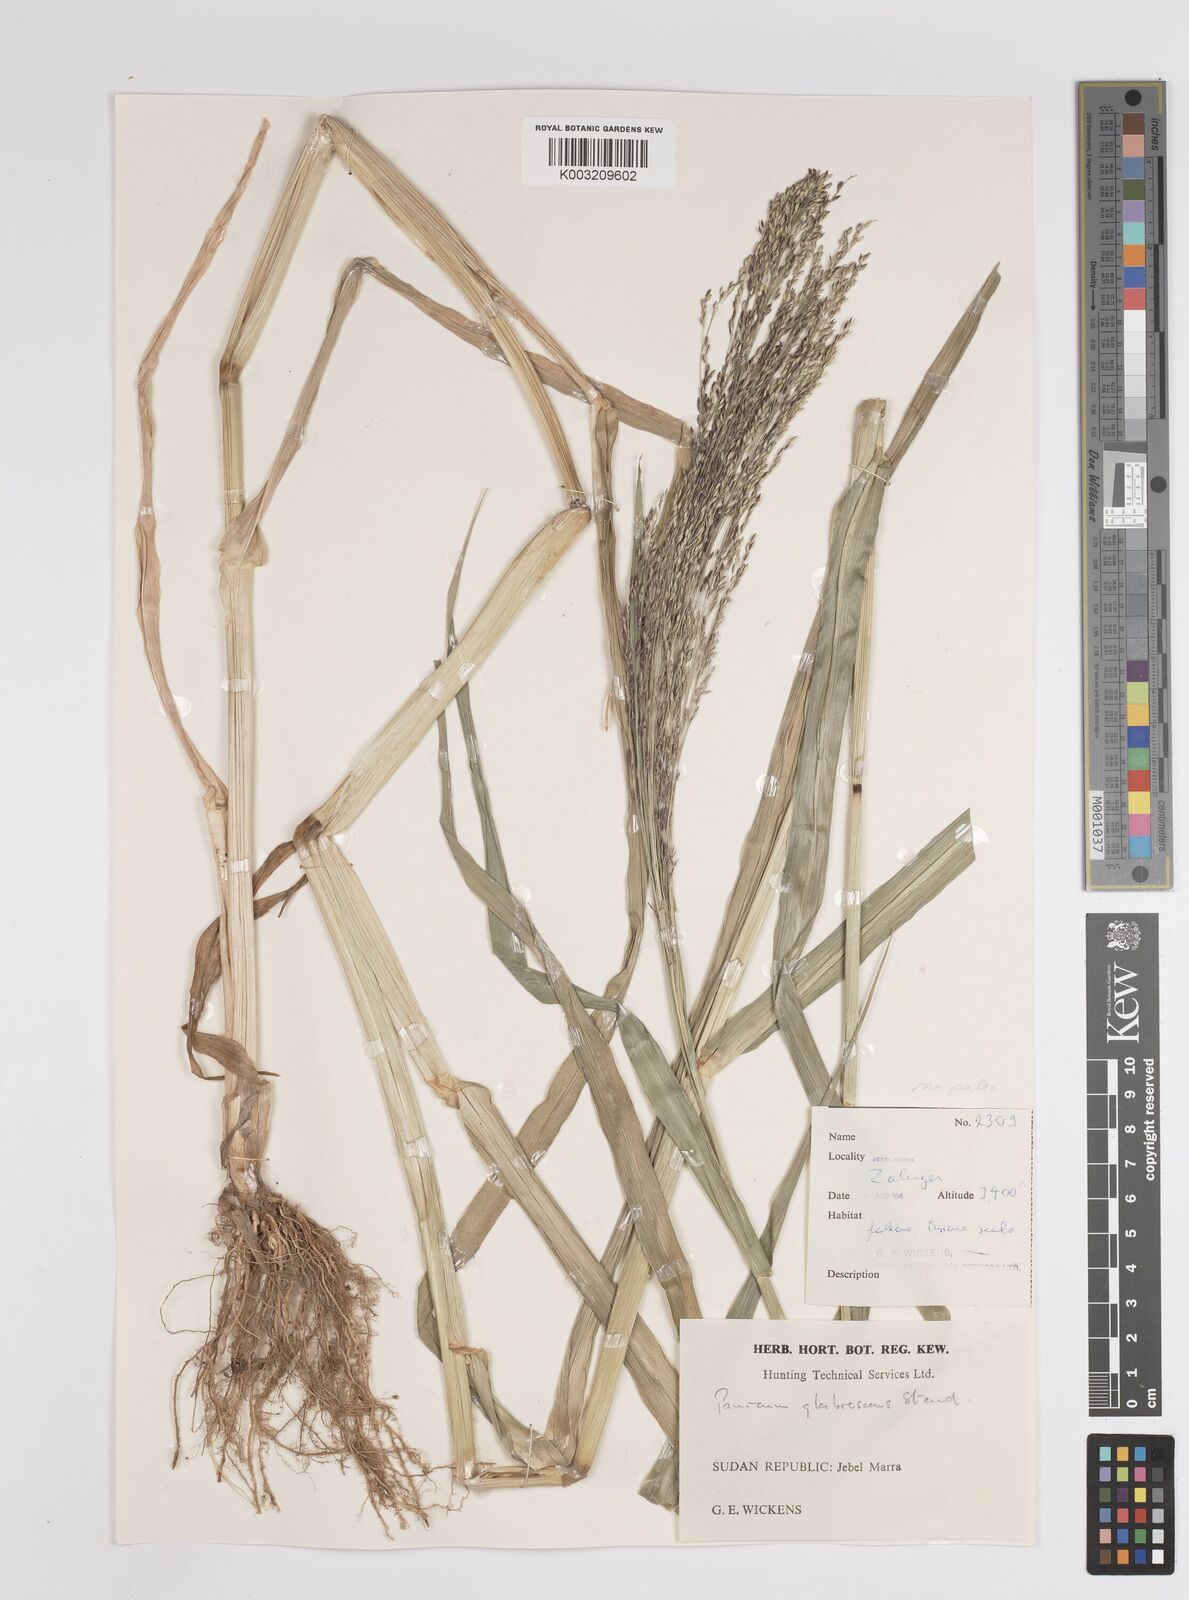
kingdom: Plantae
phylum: Tracheophyta
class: Liliopsida
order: Poales
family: Poaceae
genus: Panicum
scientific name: Panicum subalbidum
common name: Elbow buffalo grass
